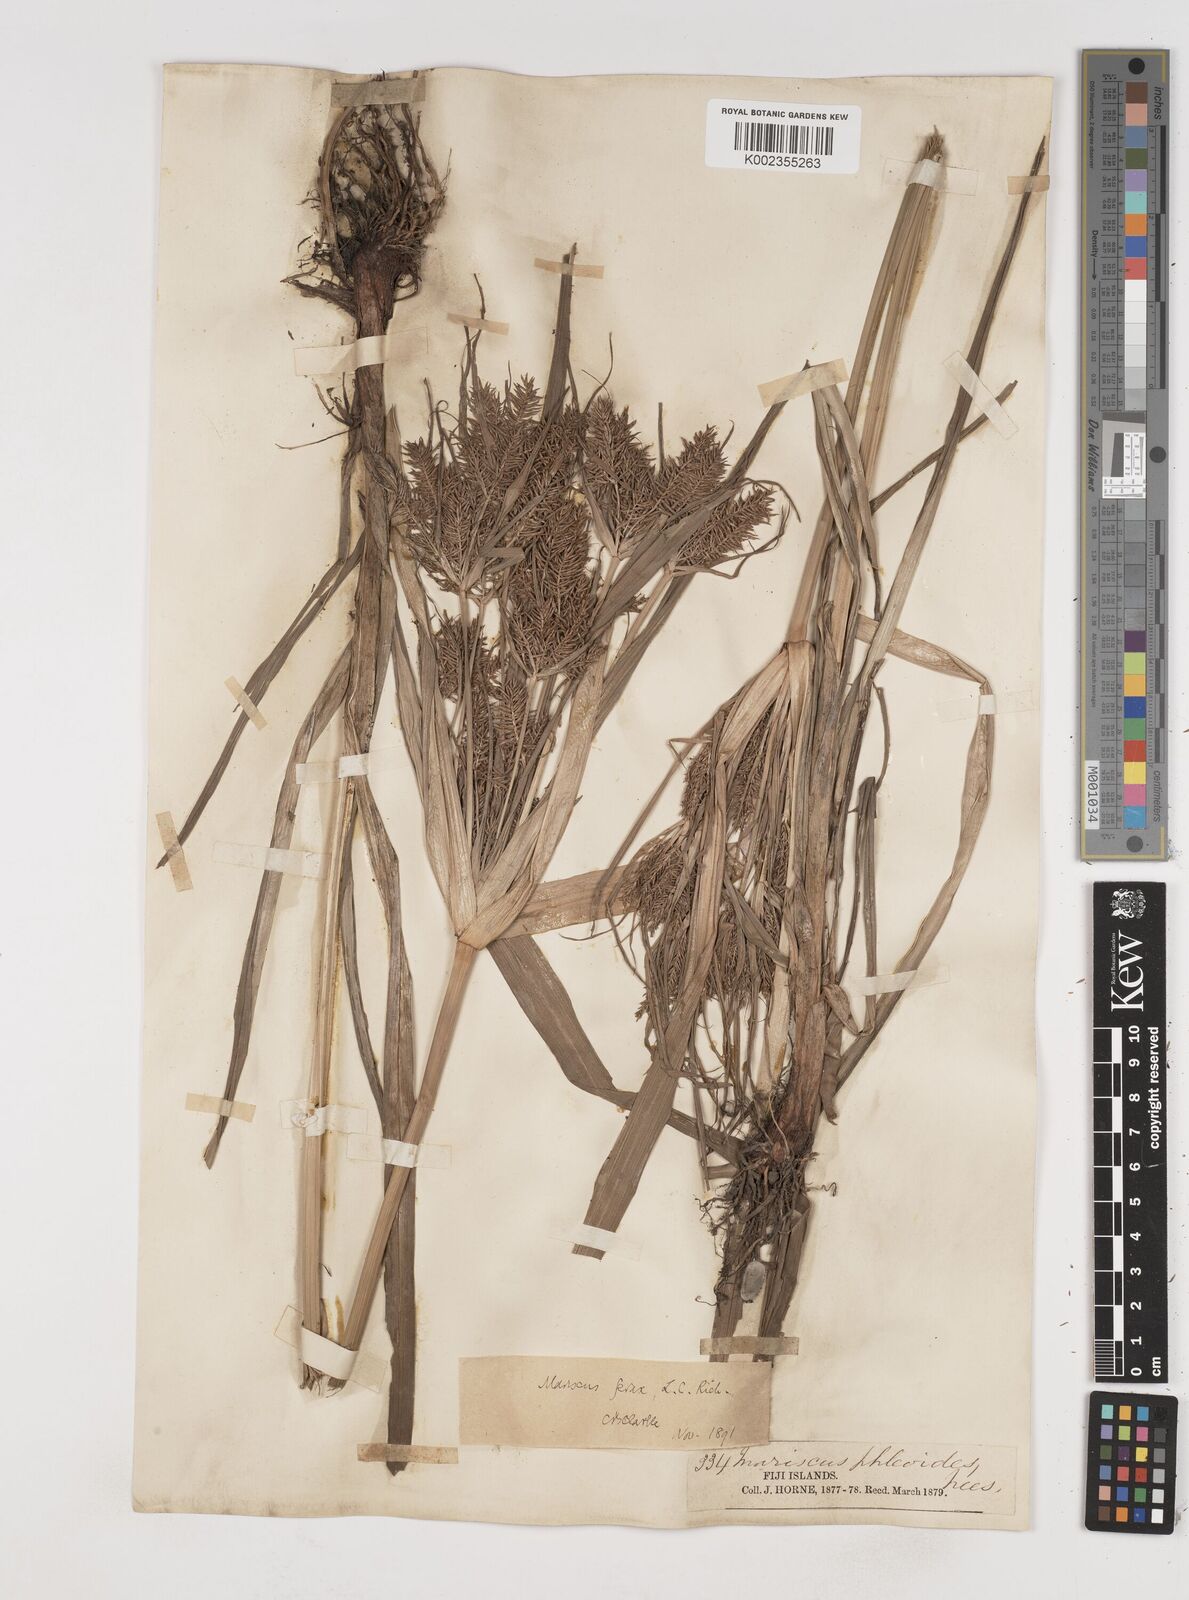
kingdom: Plantae
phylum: Tracheophyta
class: Liliopsida
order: Poales
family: Cyperaceae
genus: Cyperus
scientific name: Cyperus odoratus
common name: Fragrant flatsedge
